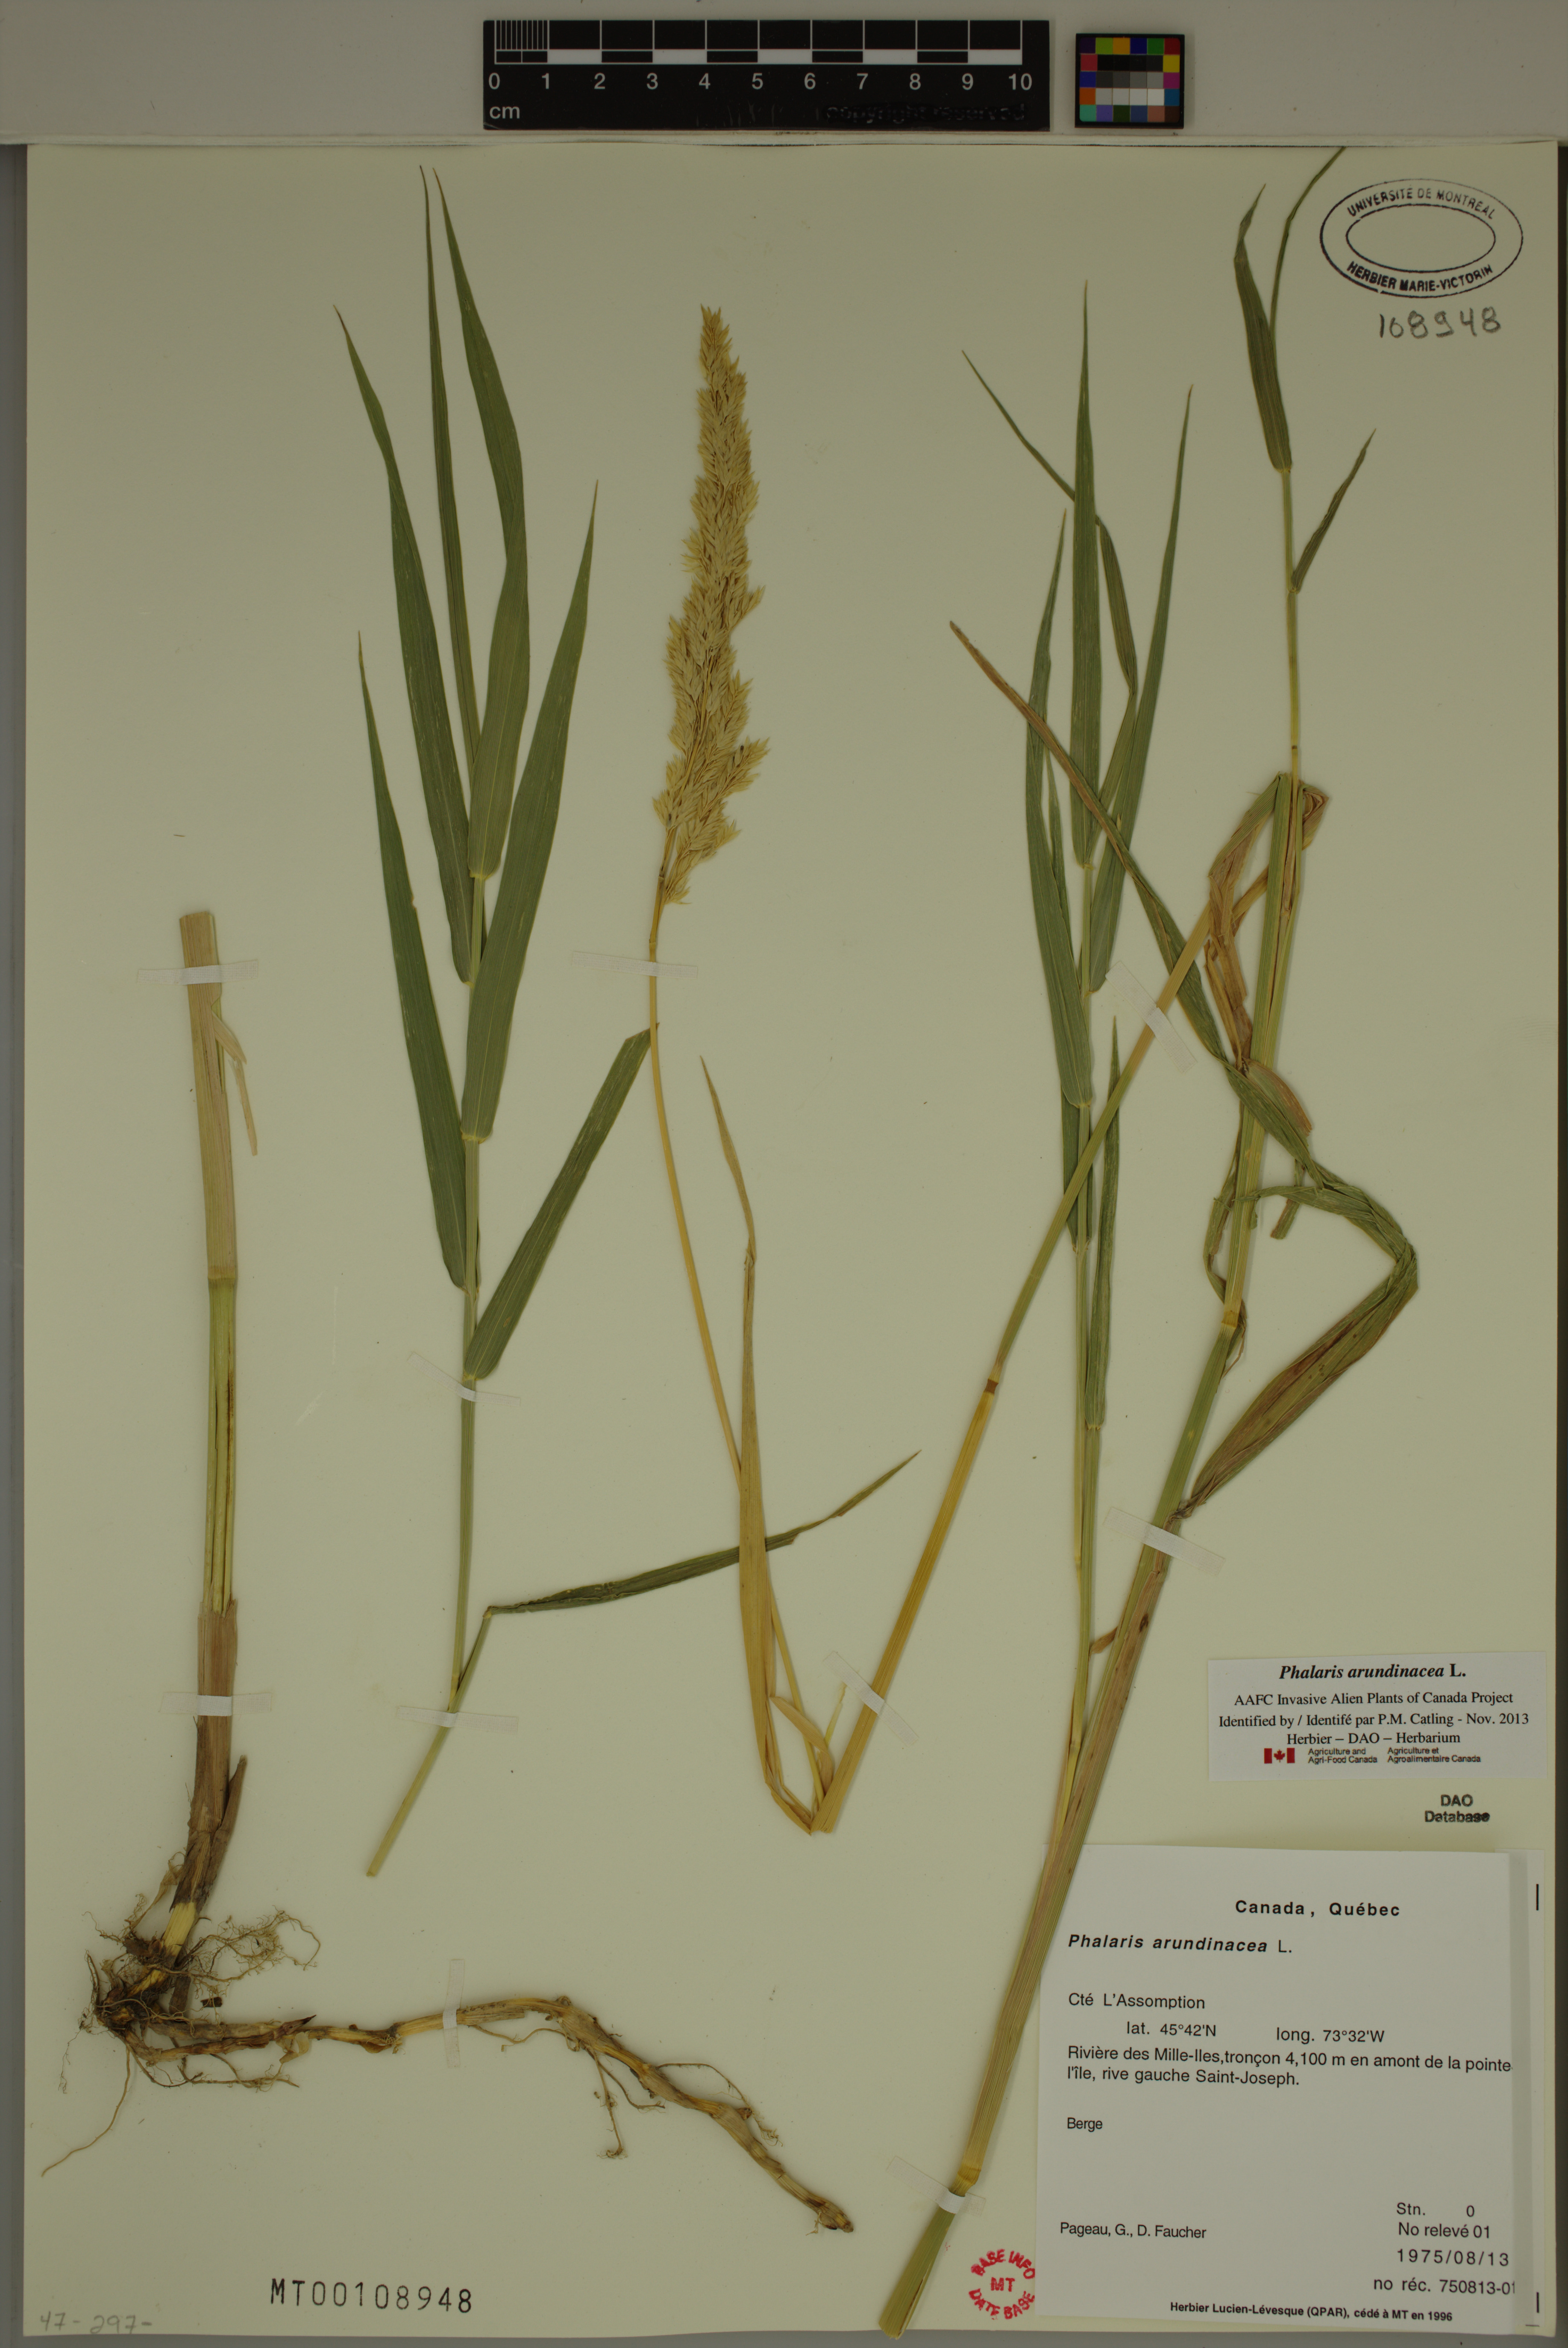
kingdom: Plantae
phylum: Tracheophyta
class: Liliopsida
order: Poales
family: Poaceae
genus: Phalaris
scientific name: Phalaris arundinacea
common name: Reed canary-grass
